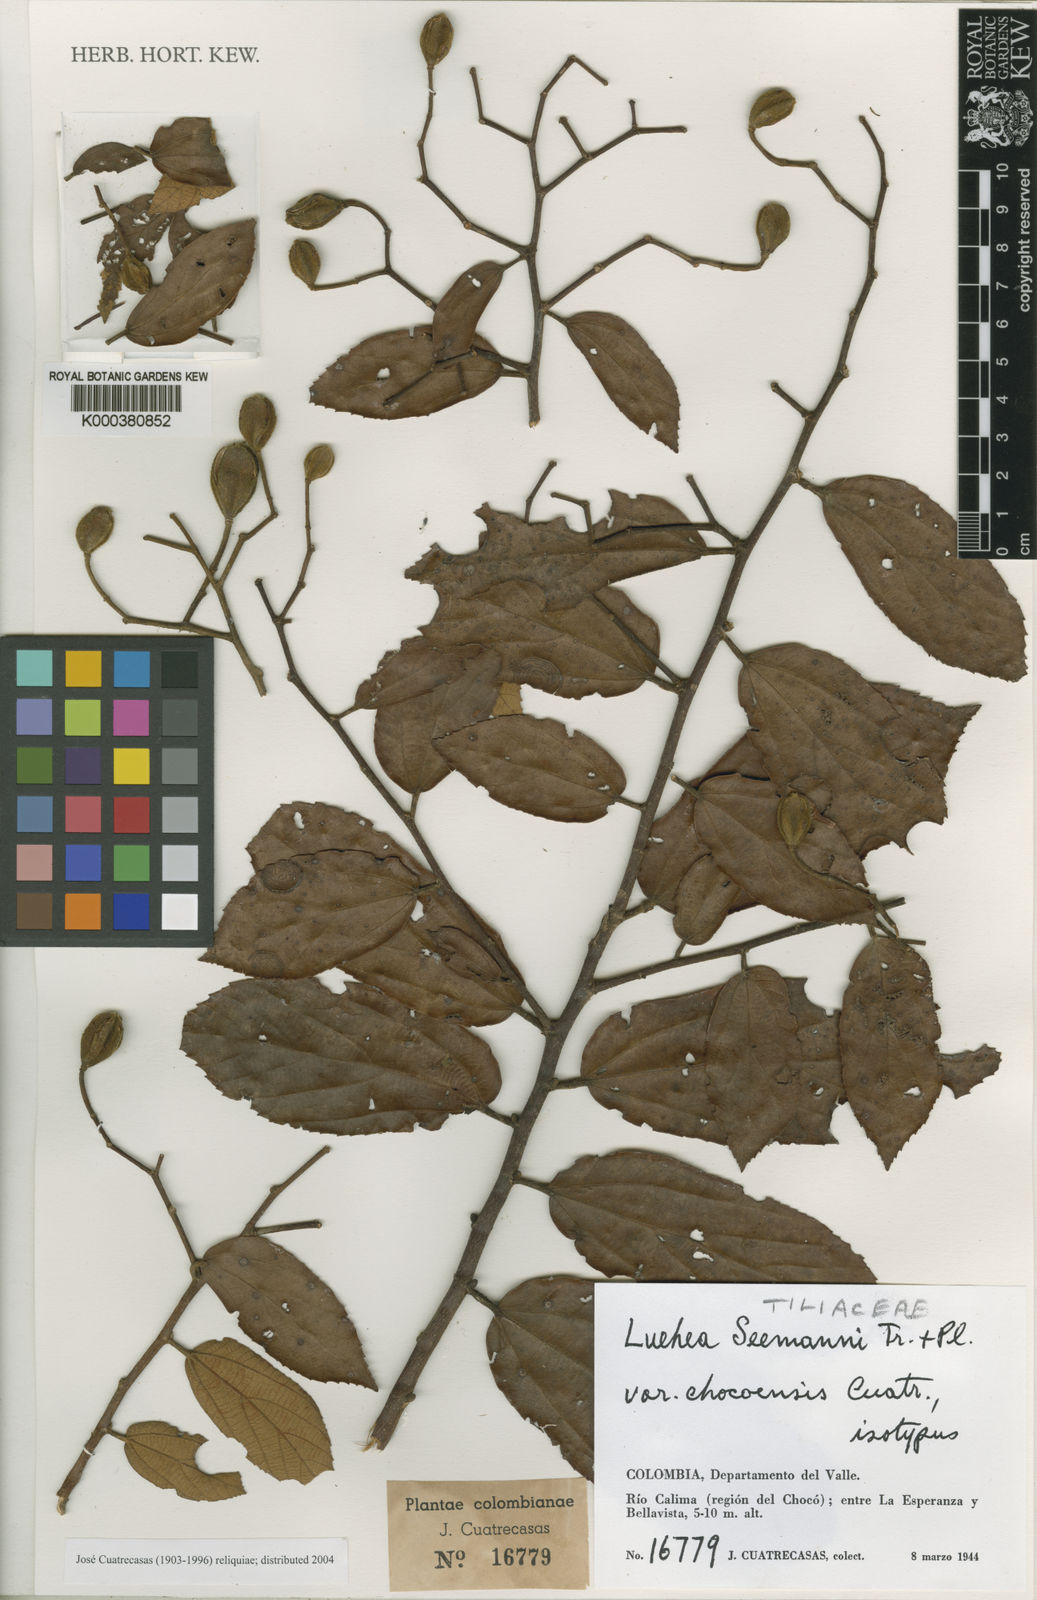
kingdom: Plantae
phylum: Tracheophyta
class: Magnoliopsida
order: Malvales
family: Malvaceae
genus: Luehea
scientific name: Luehea seemannii
